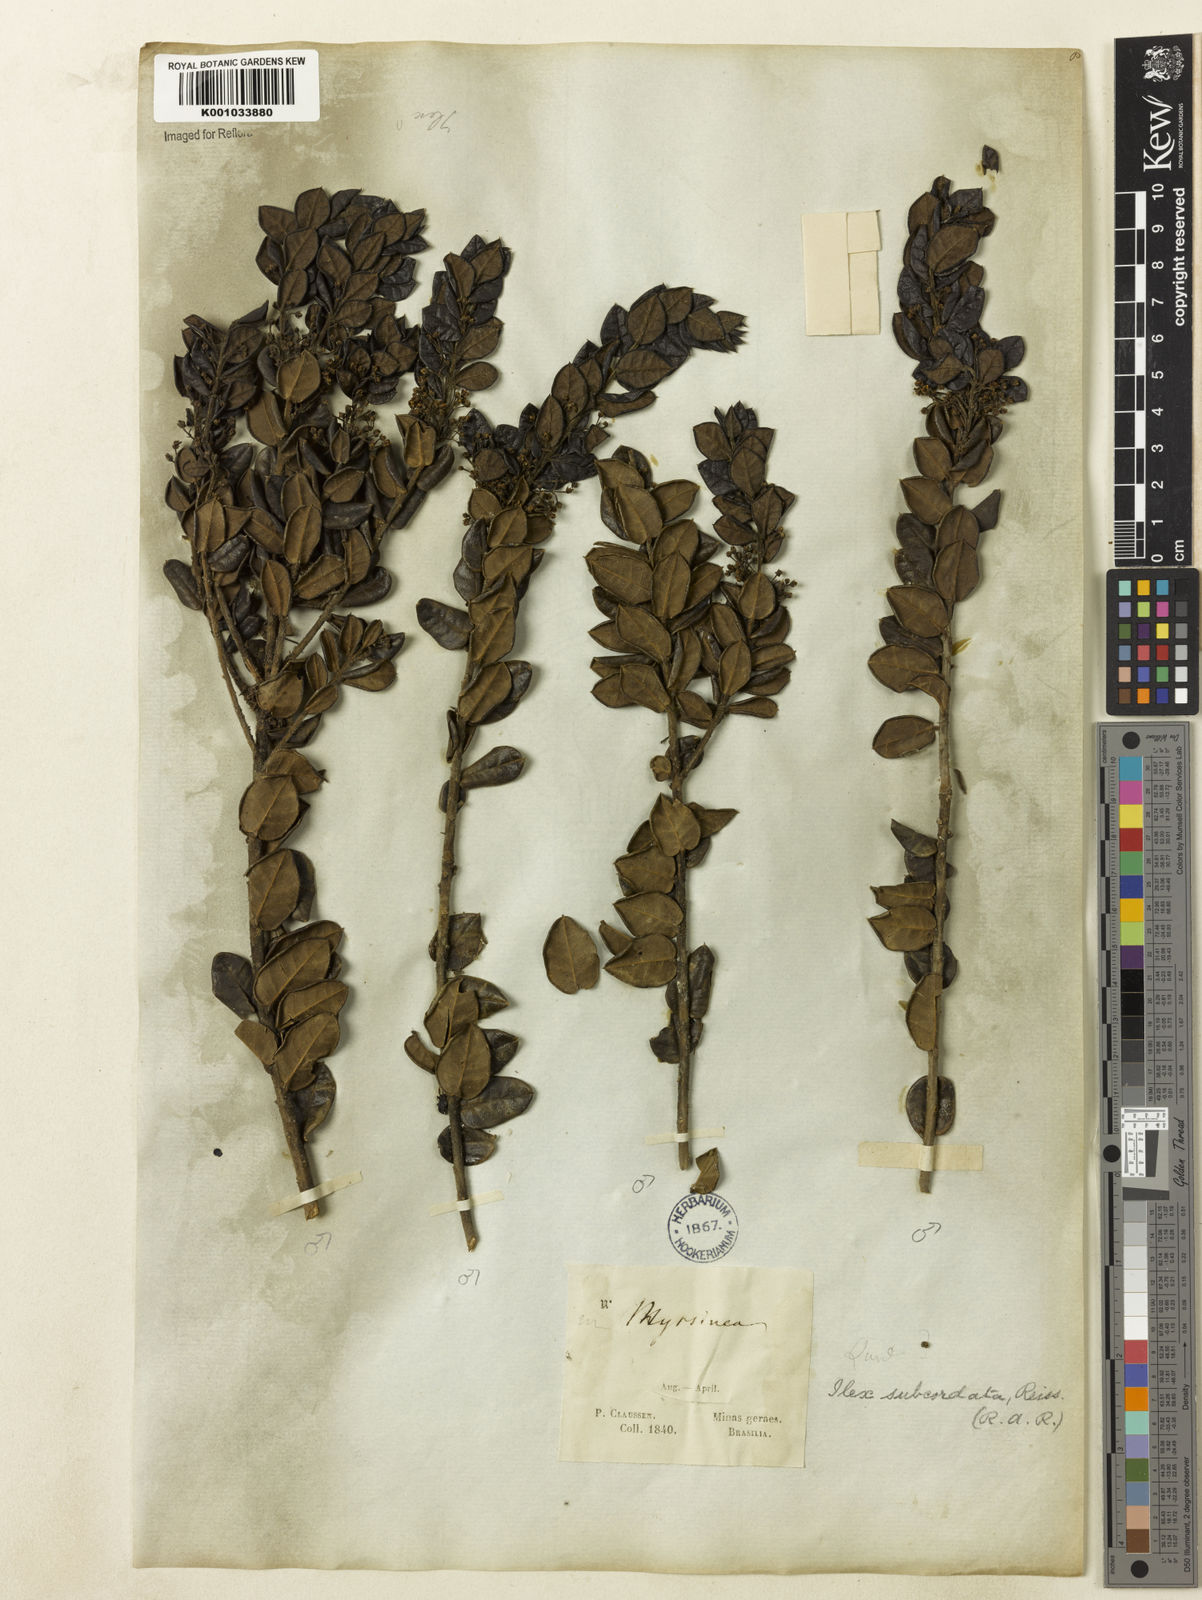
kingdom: Plantae
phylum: Tracheophyta
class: Magnoliopsida
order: Aquifoliales
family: Aquifoliaceae
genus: Ilex
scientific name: Ilex subcordata
